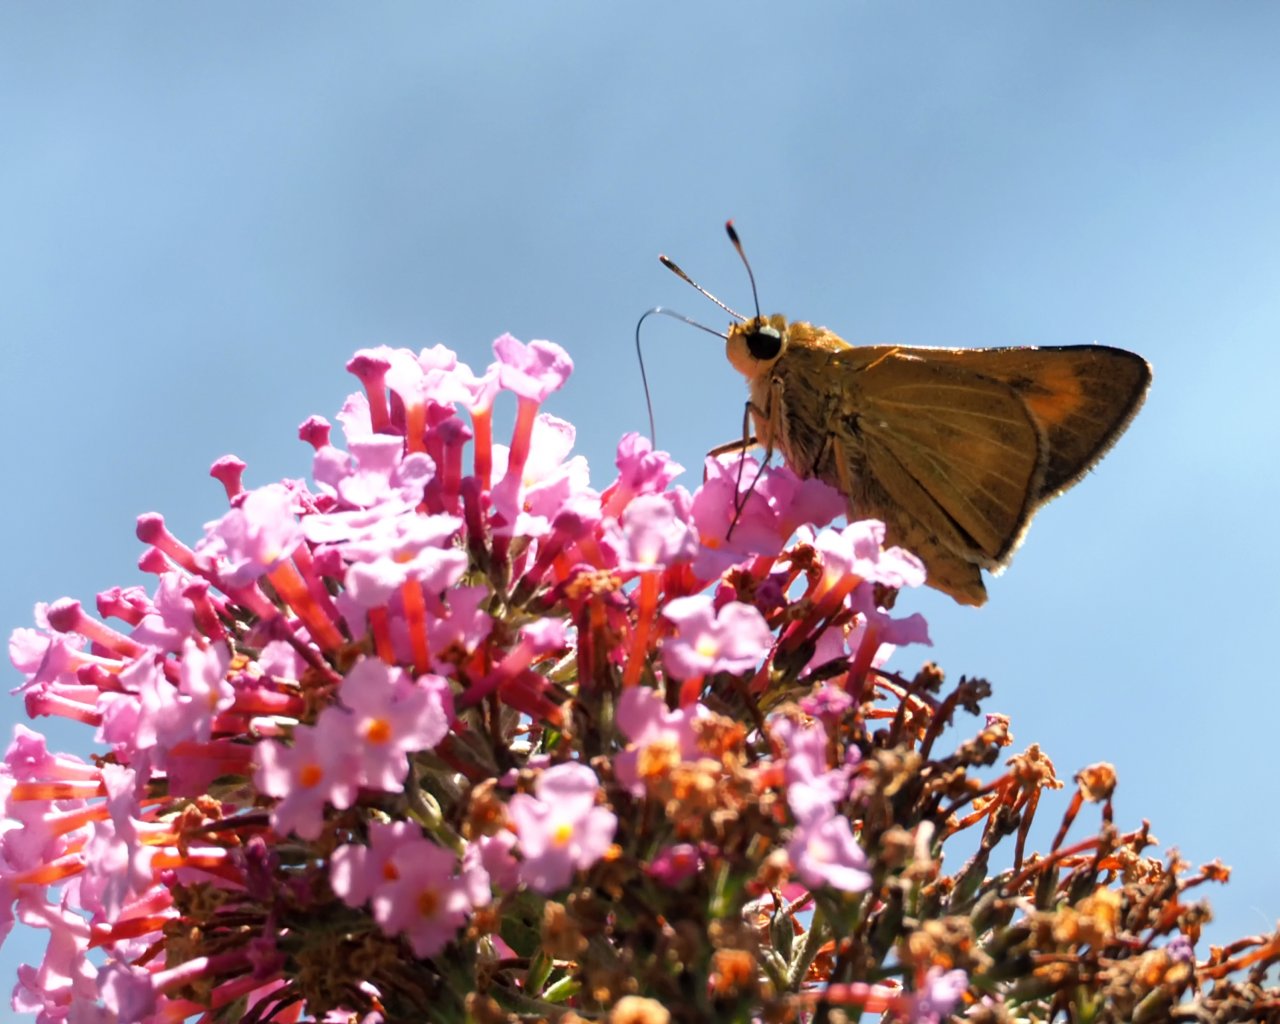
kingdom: Animalia
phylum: Arthropoda
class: Insecta
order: Lepidoptera
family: Hesperiidae
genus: Problema
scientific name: Problema byssus
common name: Byssus Skipper
